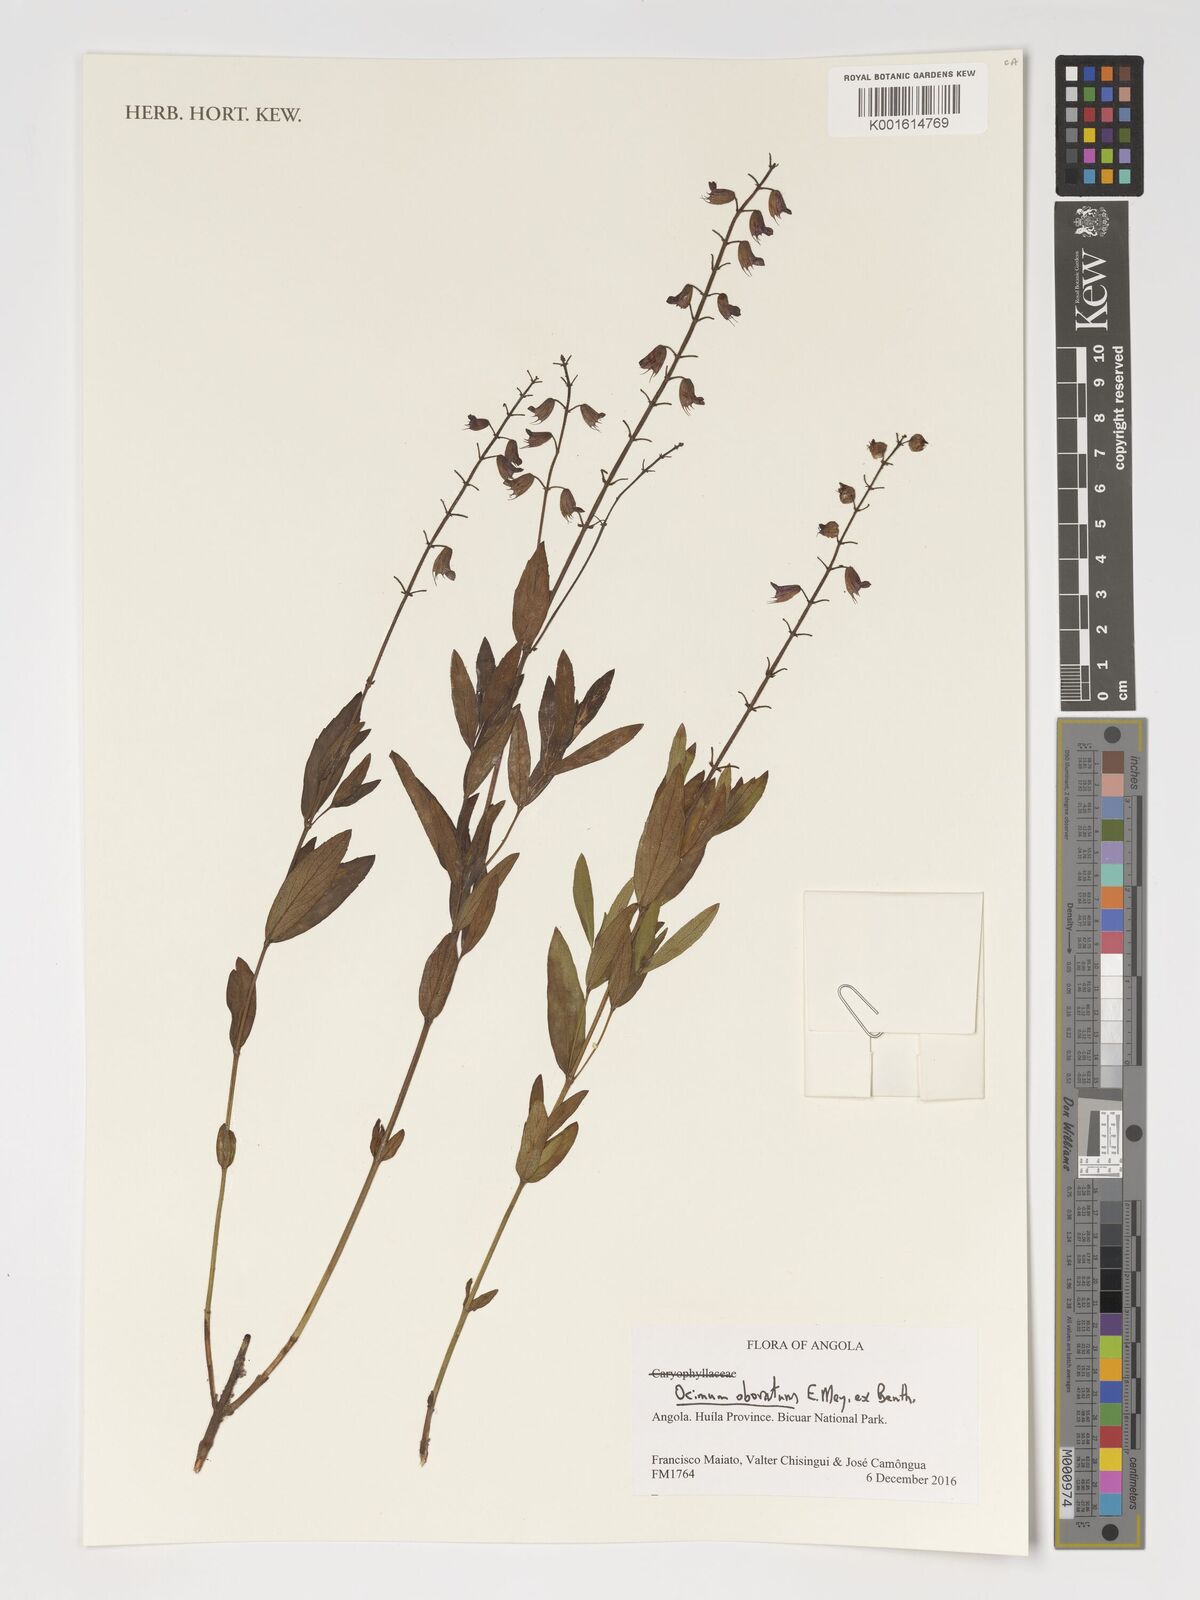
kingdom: Plantae
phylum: Tracheophyta
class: Magnoliopsida
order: Lamiales
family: Lamiaceae
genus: Ocimum
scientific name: Ocimum obovatum
